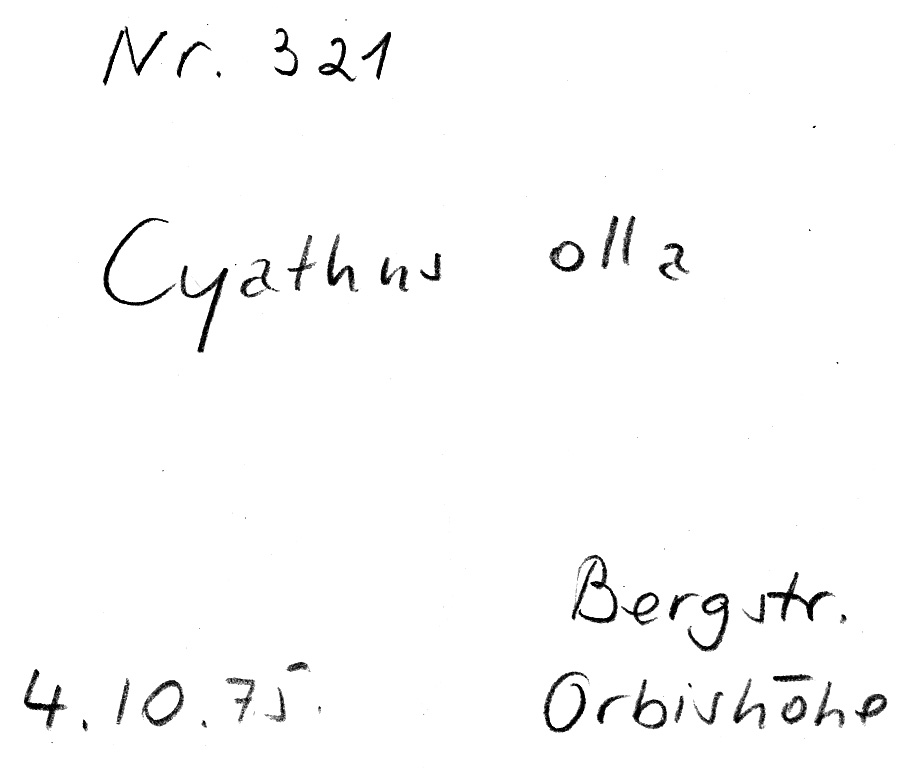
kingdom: Fungi
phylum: Basidiomycota
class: Agaricomycetes
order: Agaricales
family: Agaricaceae
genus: Cyathus
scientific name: Cyathus olla
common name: Field bird's nest
